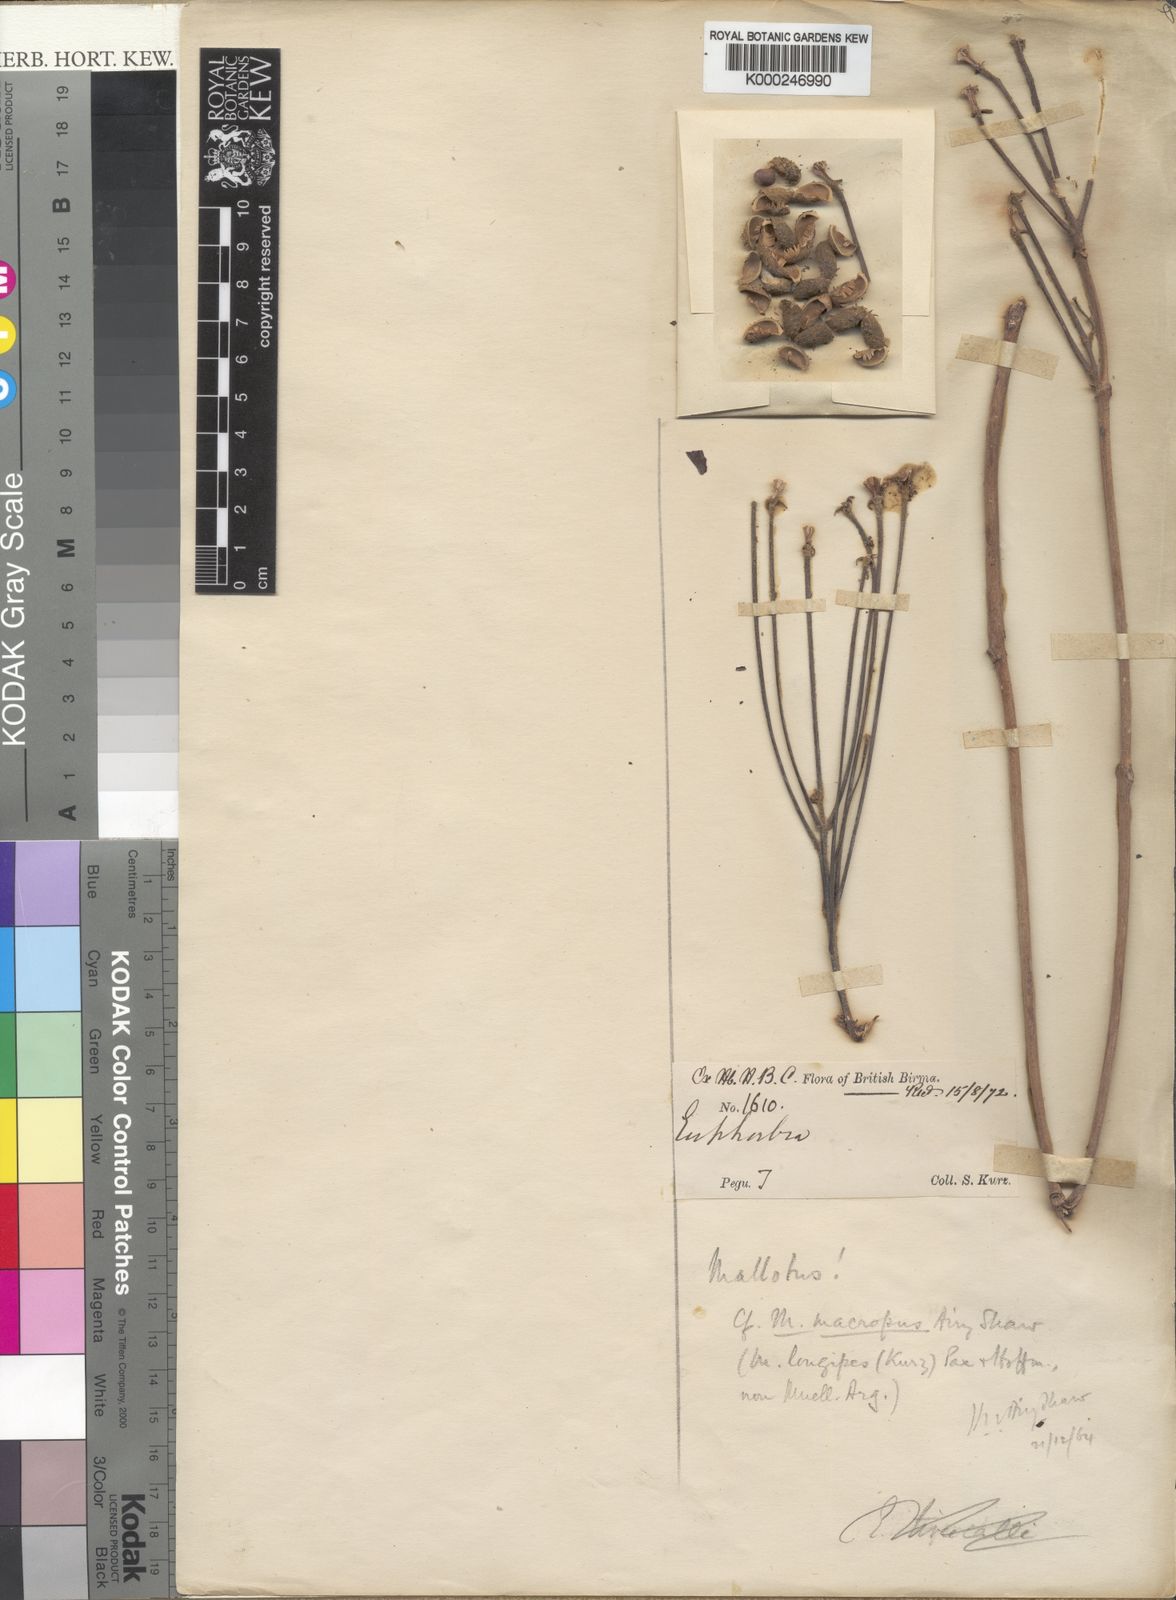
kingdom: Plantae
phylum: Tracheophyta
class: Magnoliopsida
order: Malpighiales
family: Euphorbiaceae
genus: Mallotus
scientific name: Mallotus myanmaricus
